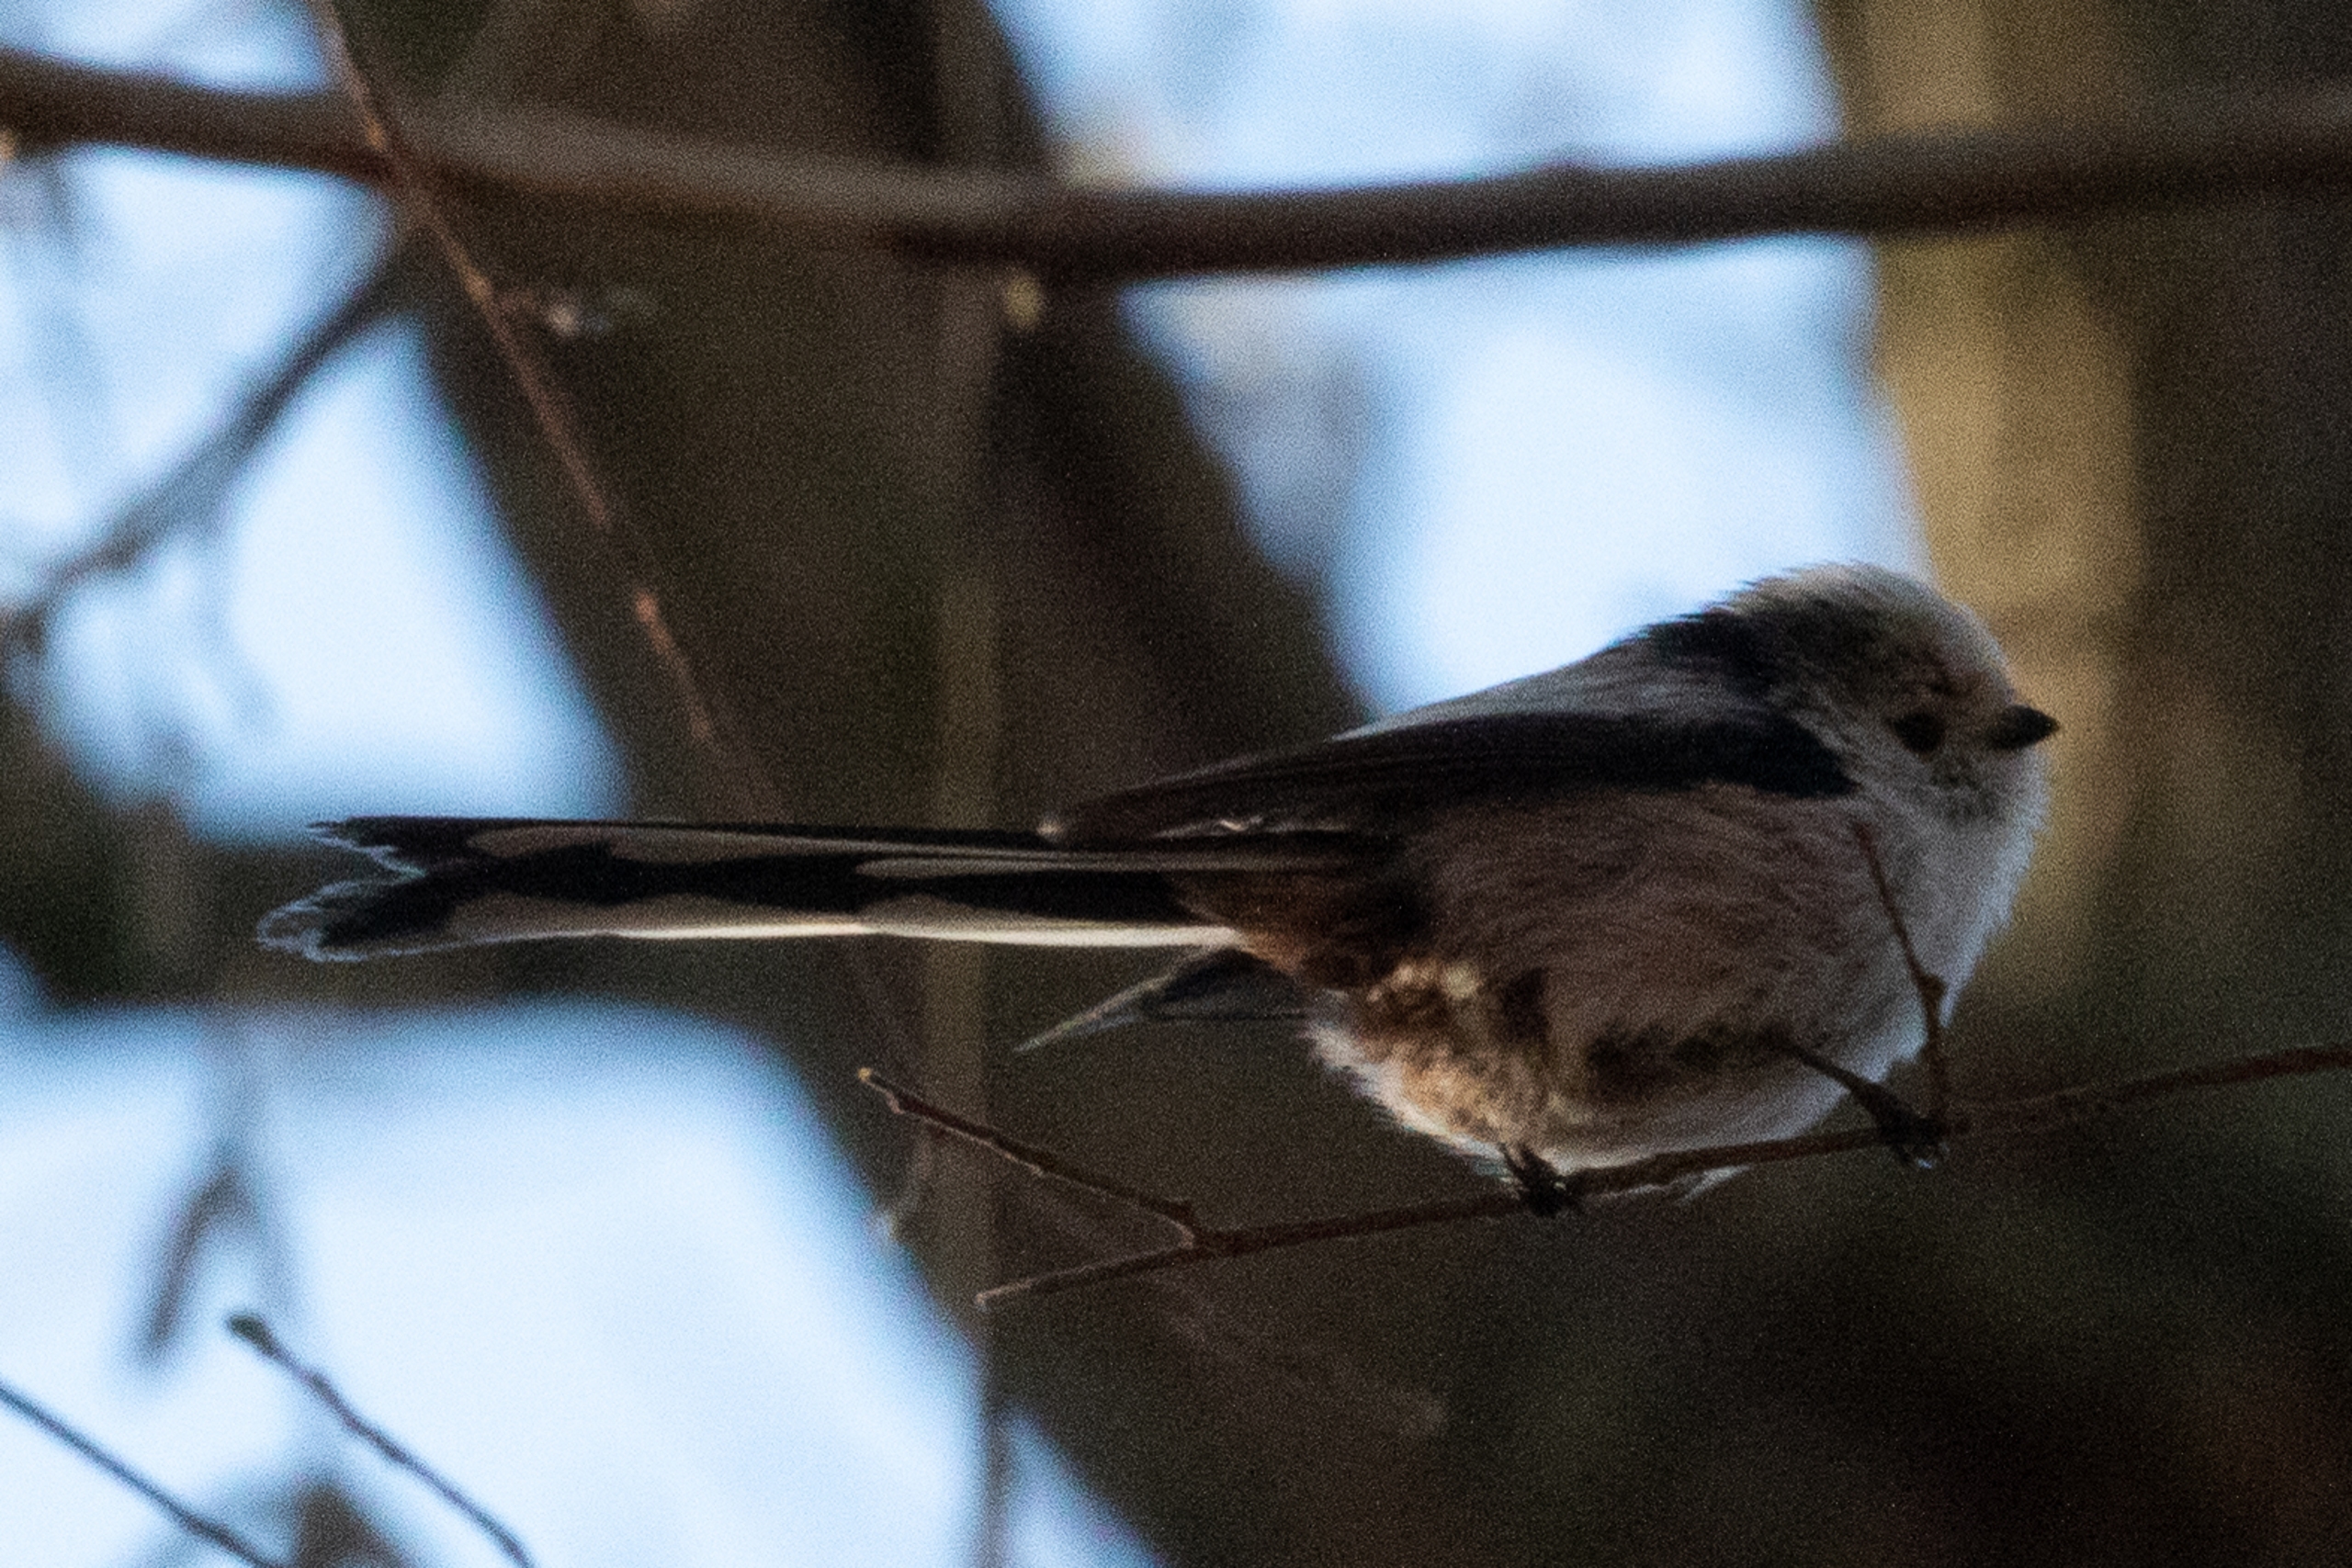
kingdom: Animalia
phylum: Chordata
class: Aves
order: Passeriformes
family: Aegithalidae
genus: Aegithalos
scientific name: Aegithalos caudatus
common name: Halemejse
